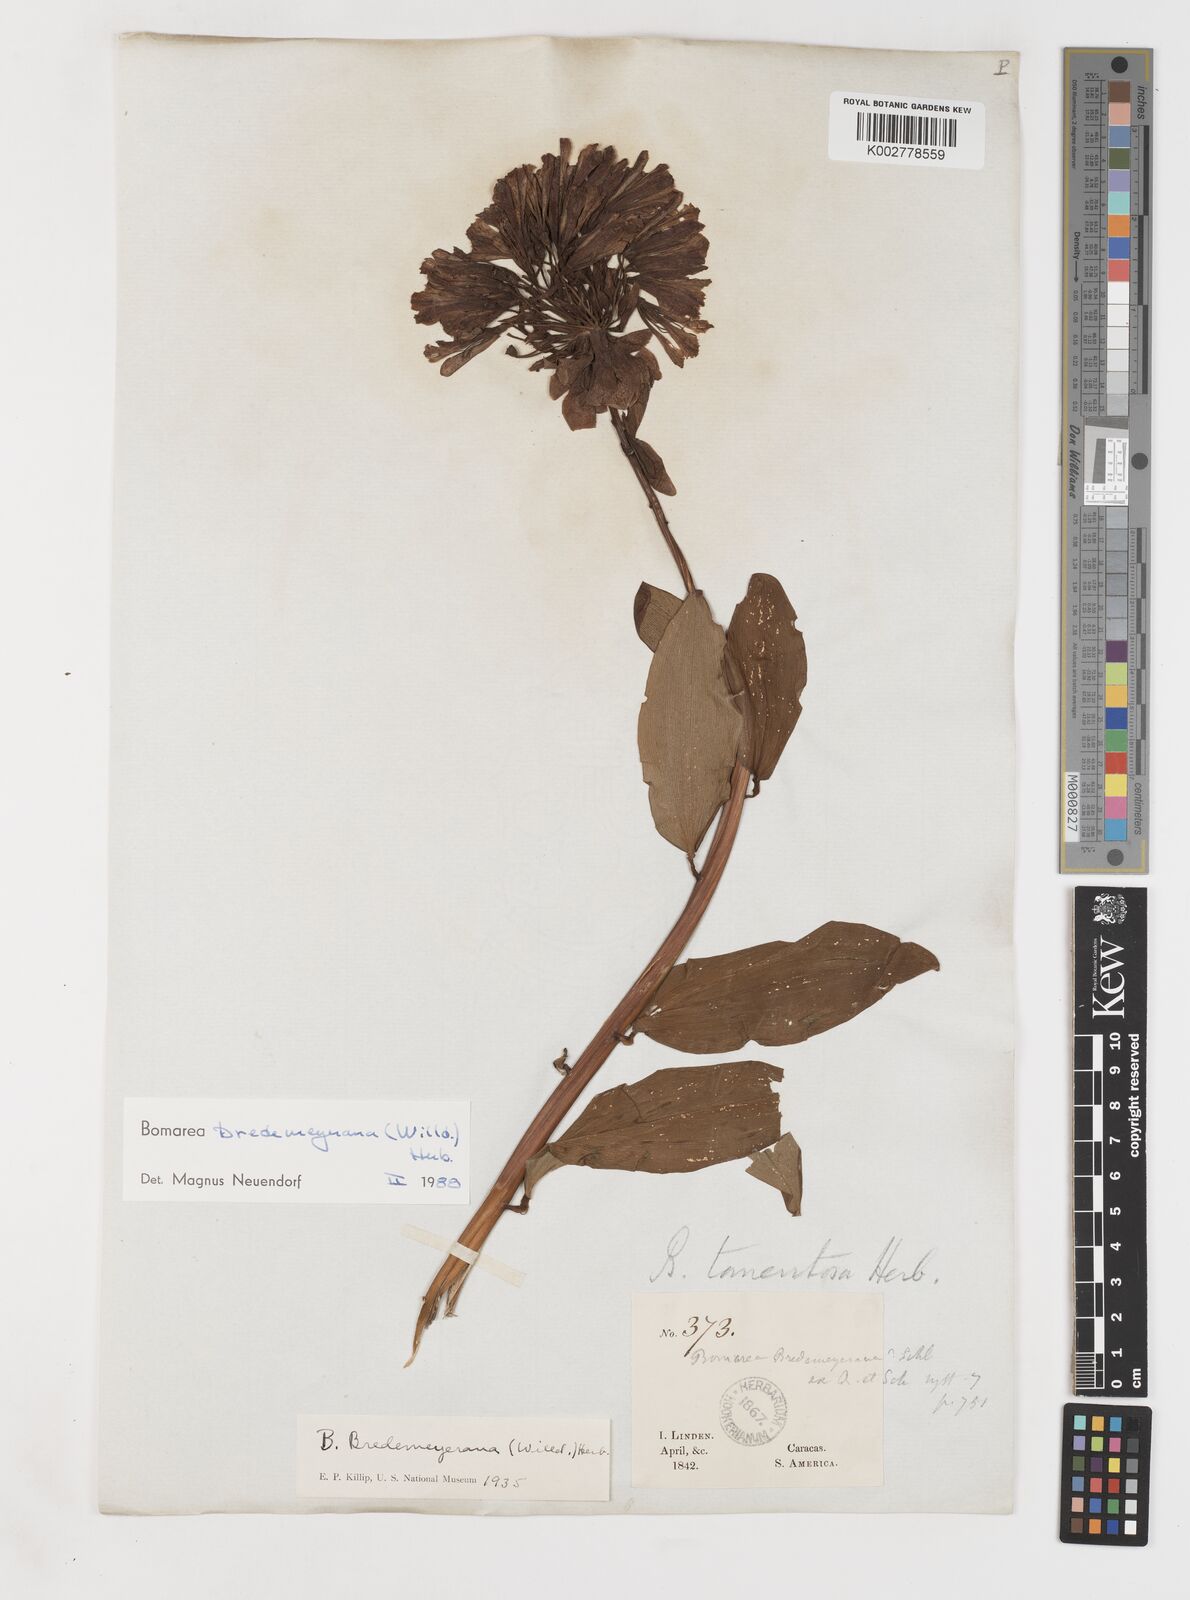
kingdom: Plantae
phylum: Tracheophyta
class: Liliopsida
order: Liliales
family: Alstroemeriaceae
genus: Bomarea
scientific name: Bomarea multiflora
